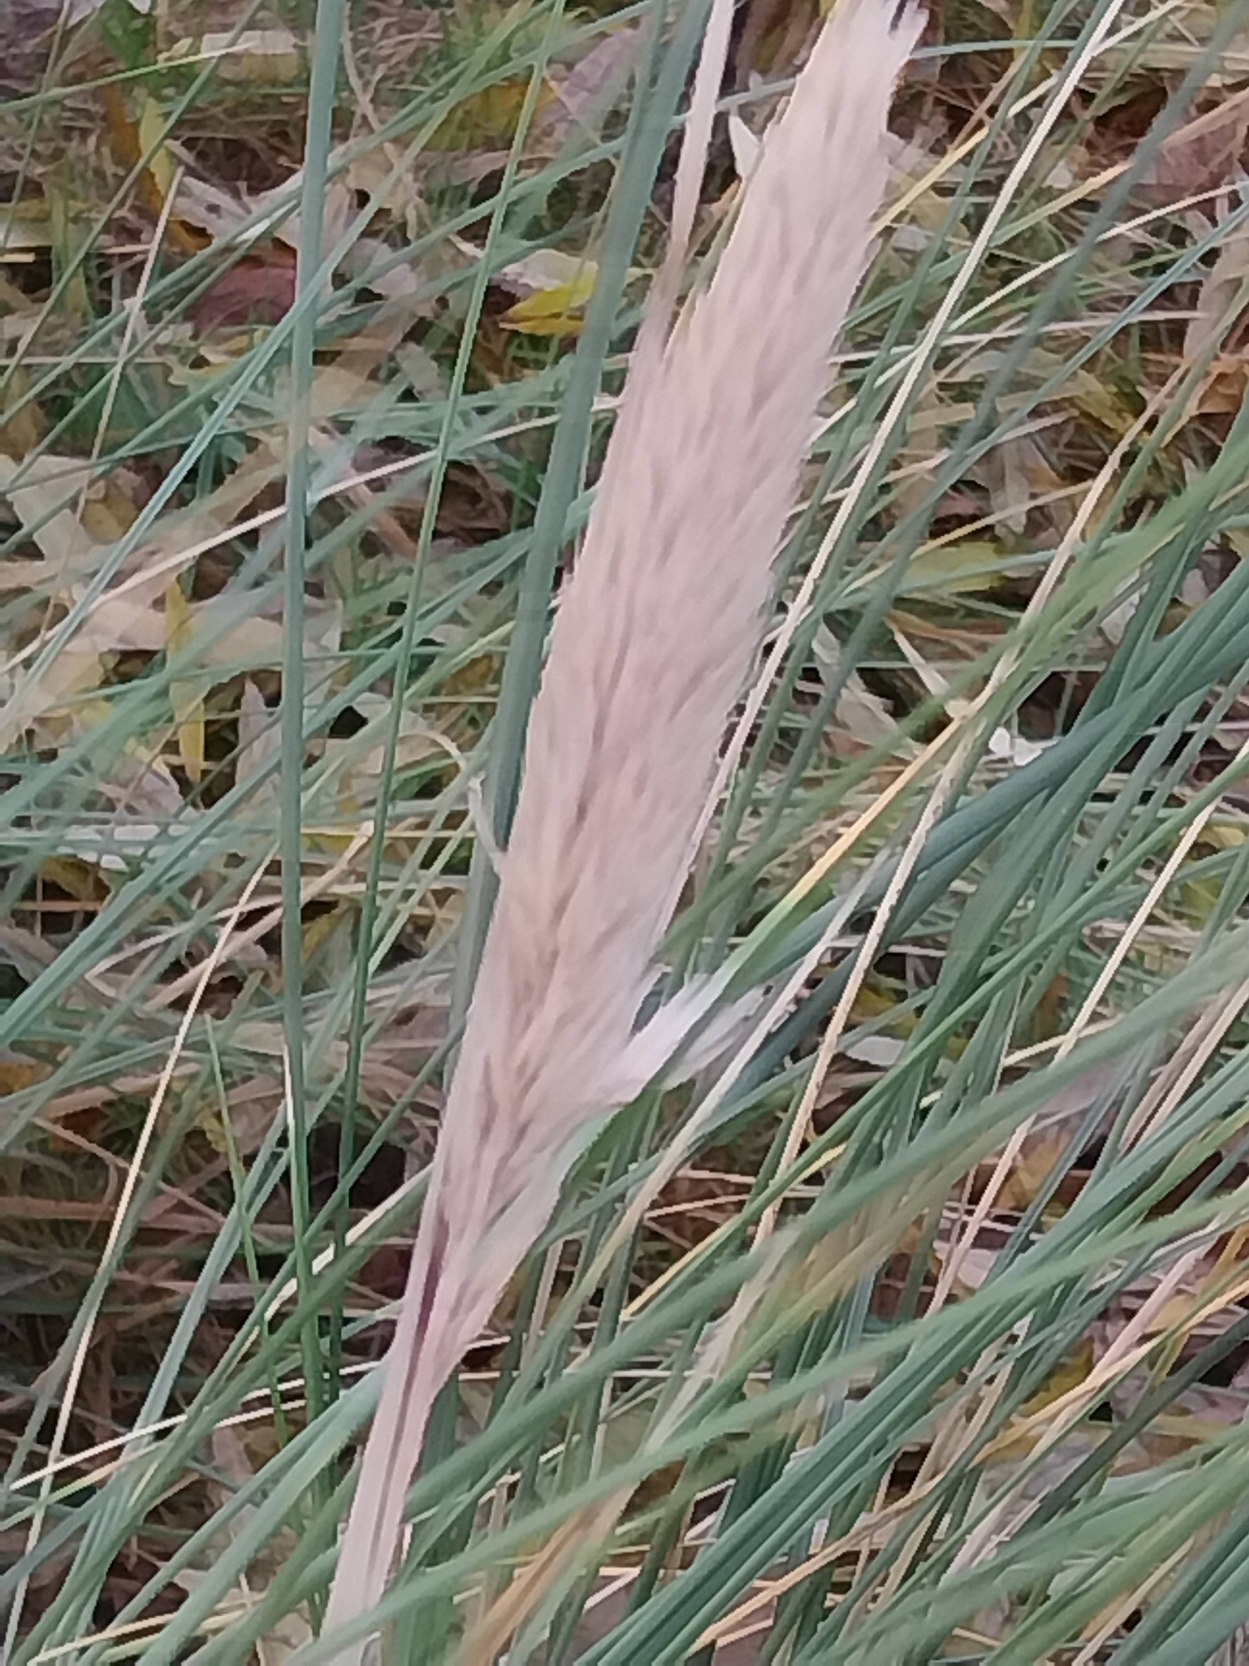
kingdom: Plantae
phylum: Tracheophyta
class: Liliopsida
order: Poales
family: Poaceae
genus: Calamagrostis
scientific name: Calamagrostis arenaria
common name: Sand-hjælme
